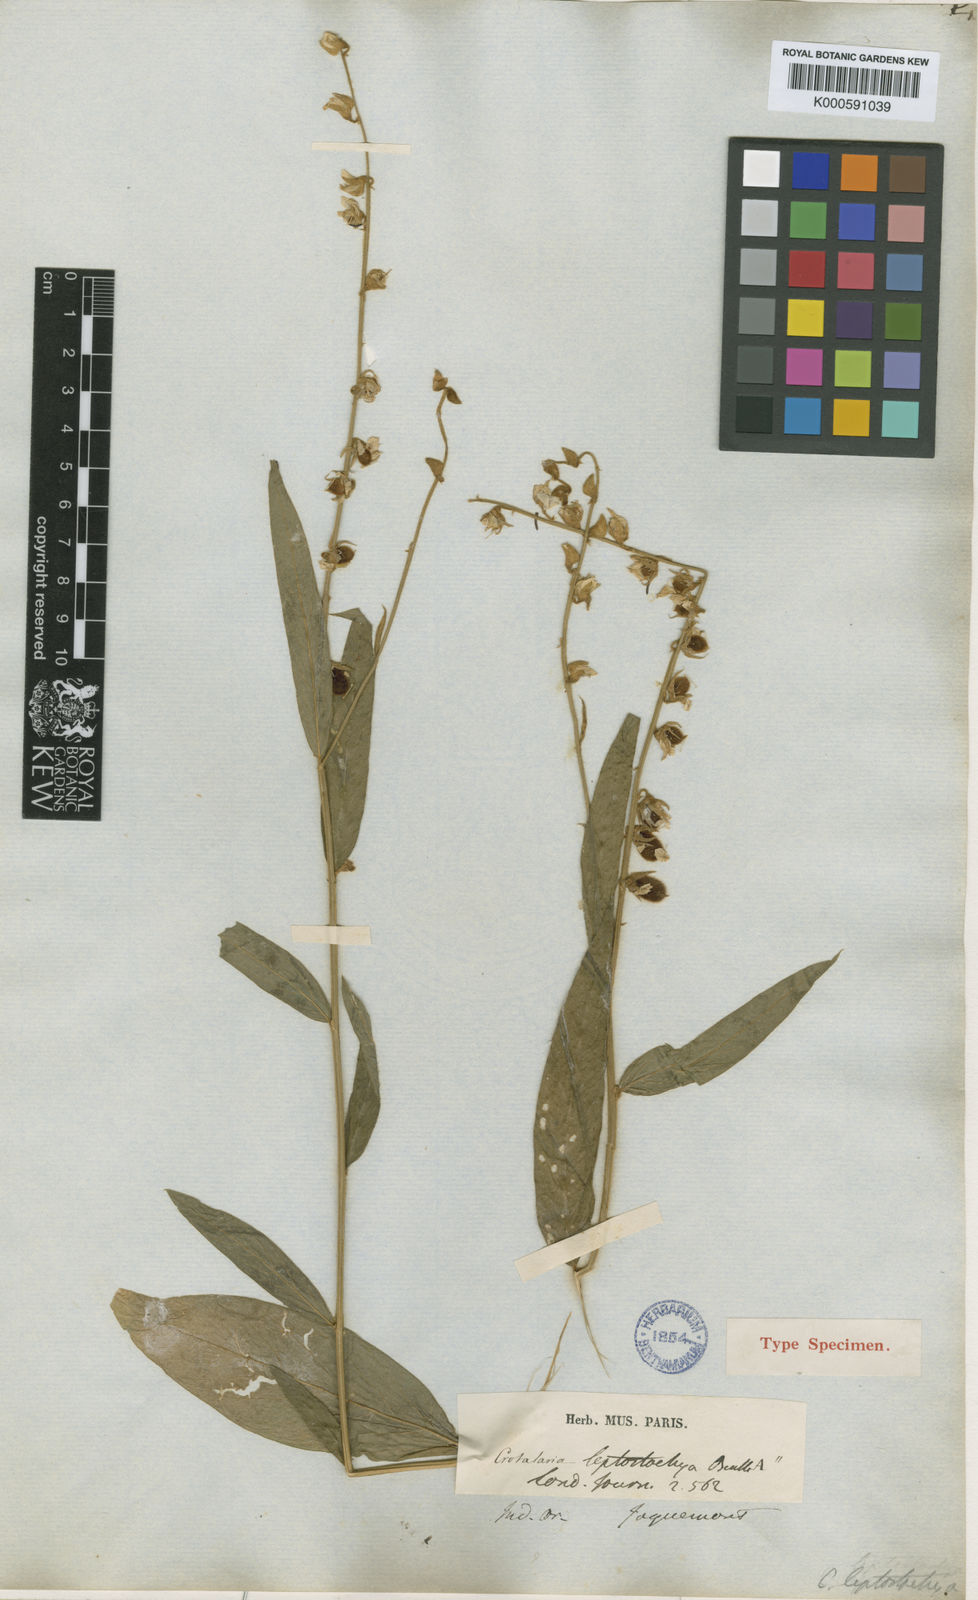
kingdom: Plantae
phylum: Tracheophyta
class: Magnoliopsida
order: Fabales
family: Fabaceae
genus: Crotalaria
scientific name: Crotalaria leptostachya
